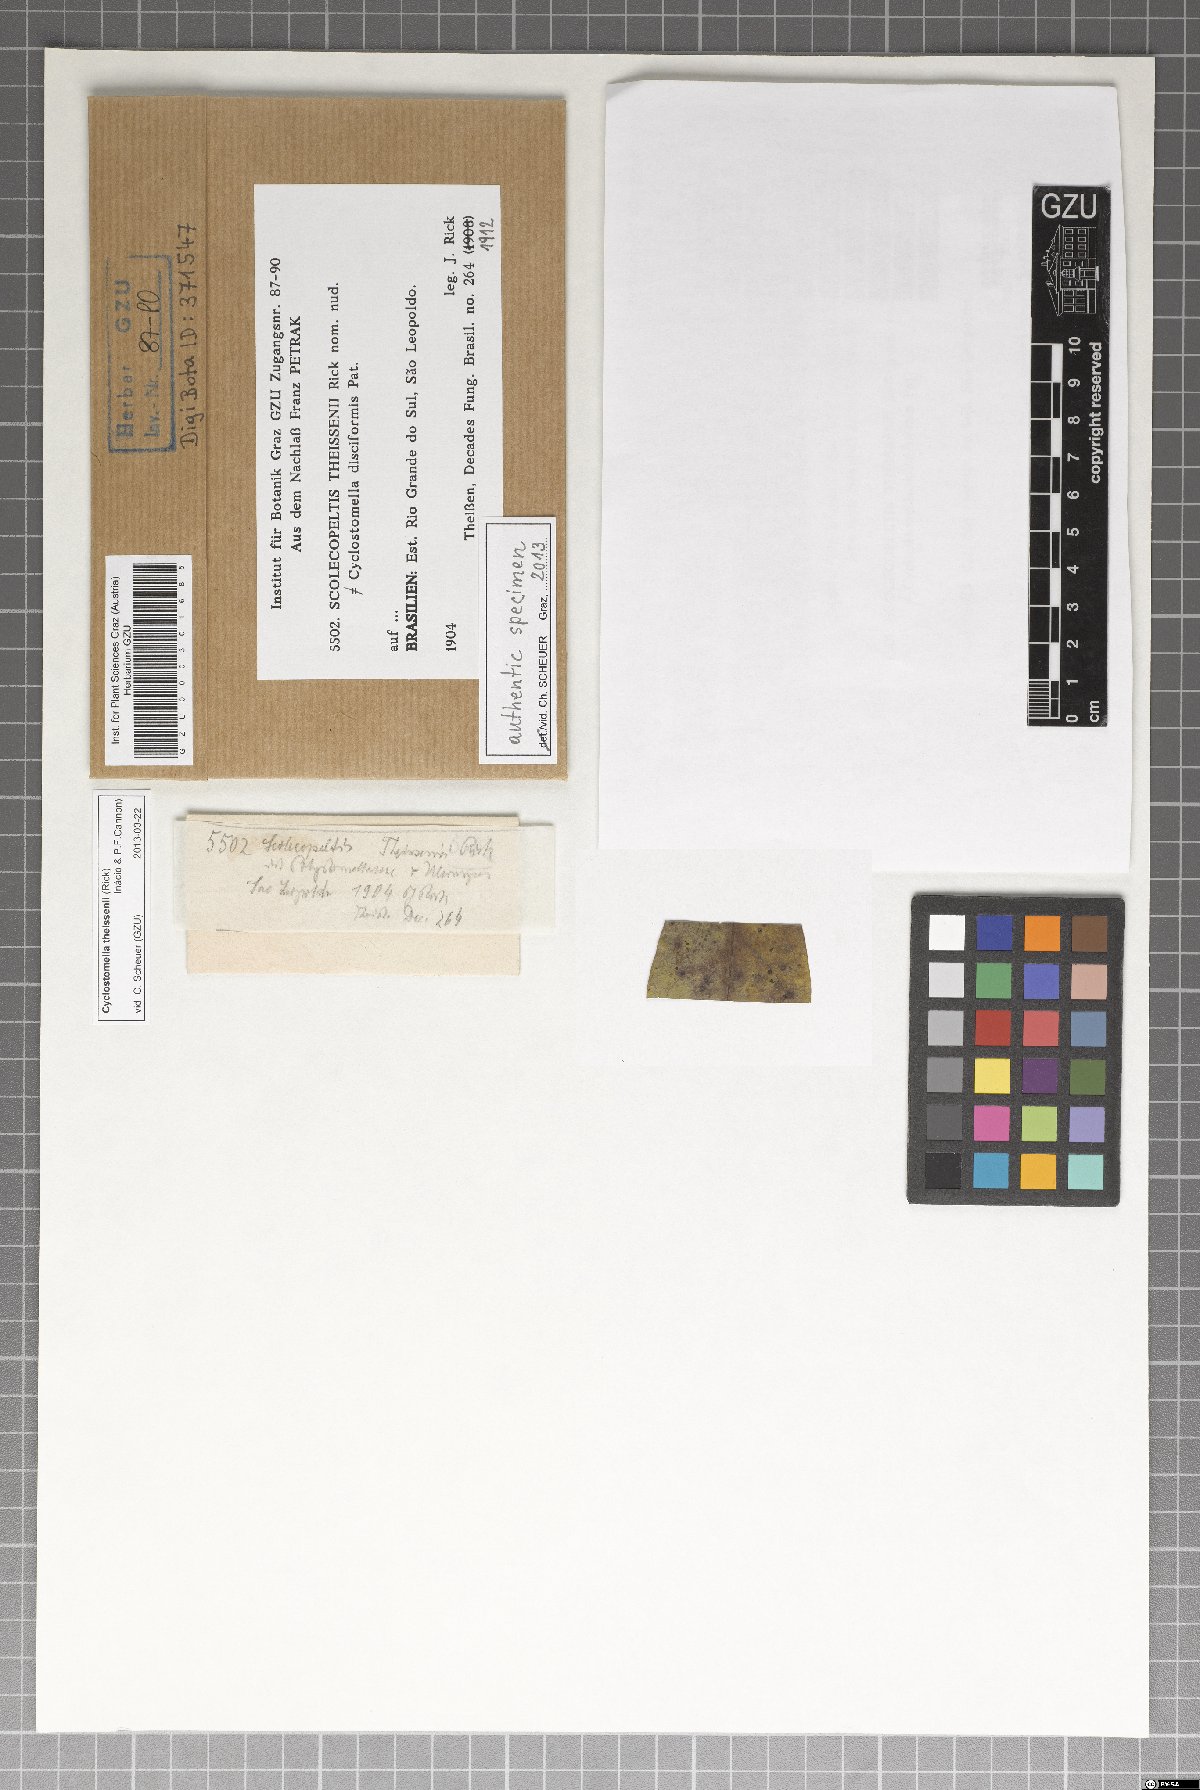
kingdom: Fungi
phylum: Ascomycota
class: Dothideomycetes
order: Asterinales
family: Parmulariaceae
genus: Cyclostomella
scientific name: Cyclostomella theissenii
